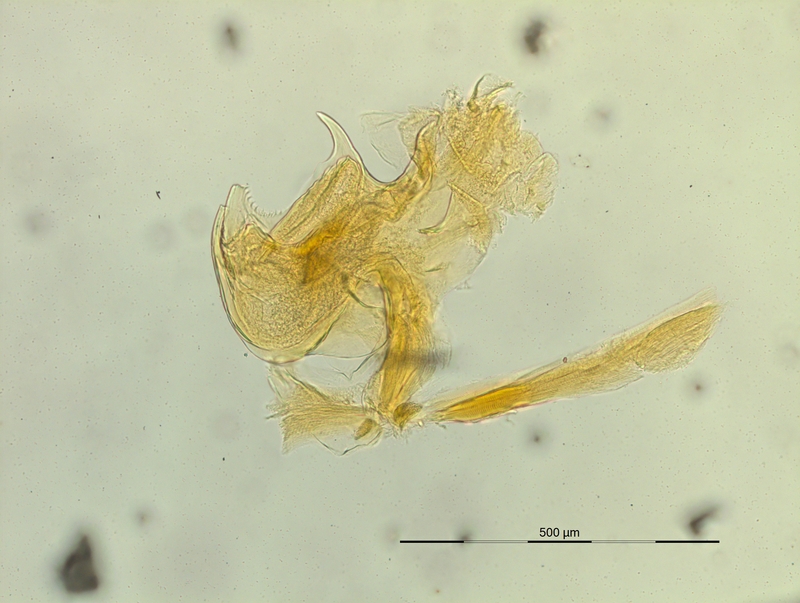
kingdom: Animalia
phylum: Arthropoda
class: Diplopoda
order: Chordeumatida
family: Craspedosomatidae
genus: Macheiriophoron
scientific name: Macheiriophoron verhoeffi
